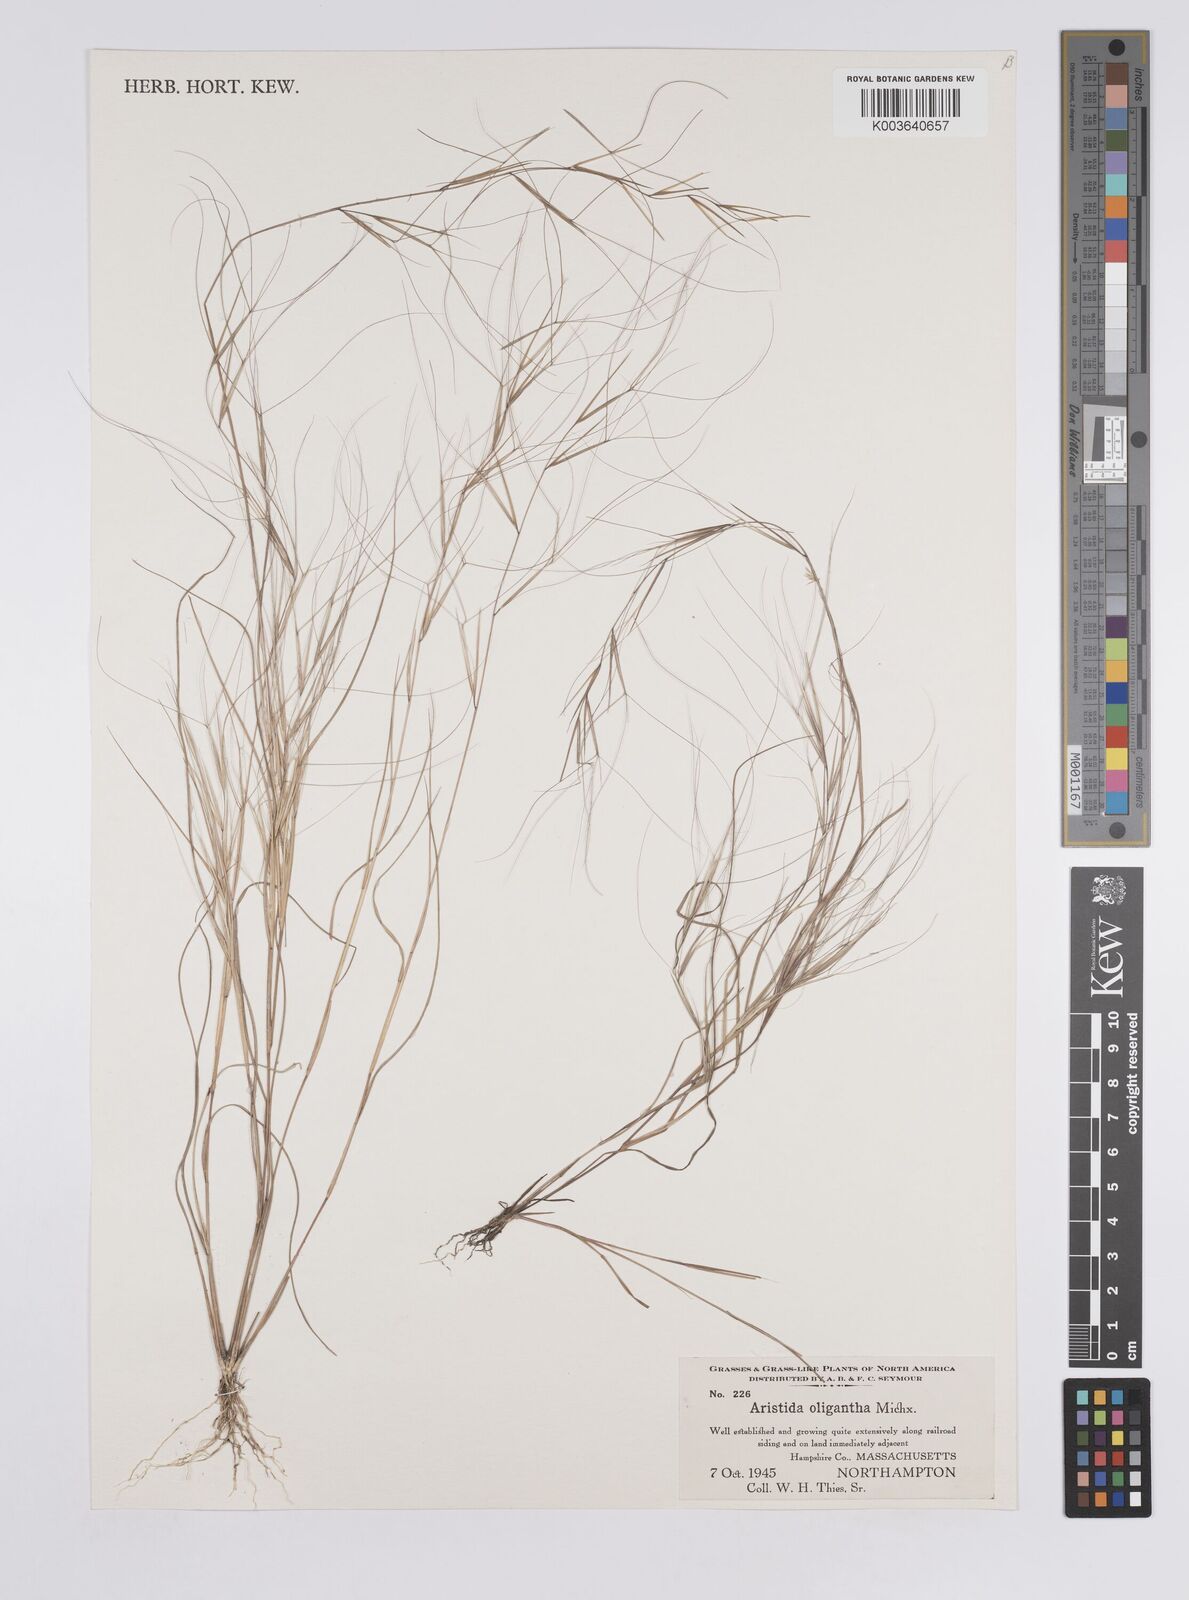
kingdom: Plantae
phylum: Tracheophyta
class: Liliopsida
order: Poales
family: Poaceae
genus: Aristida
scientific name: Aristida oligantha
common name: Few-flowered aristida
